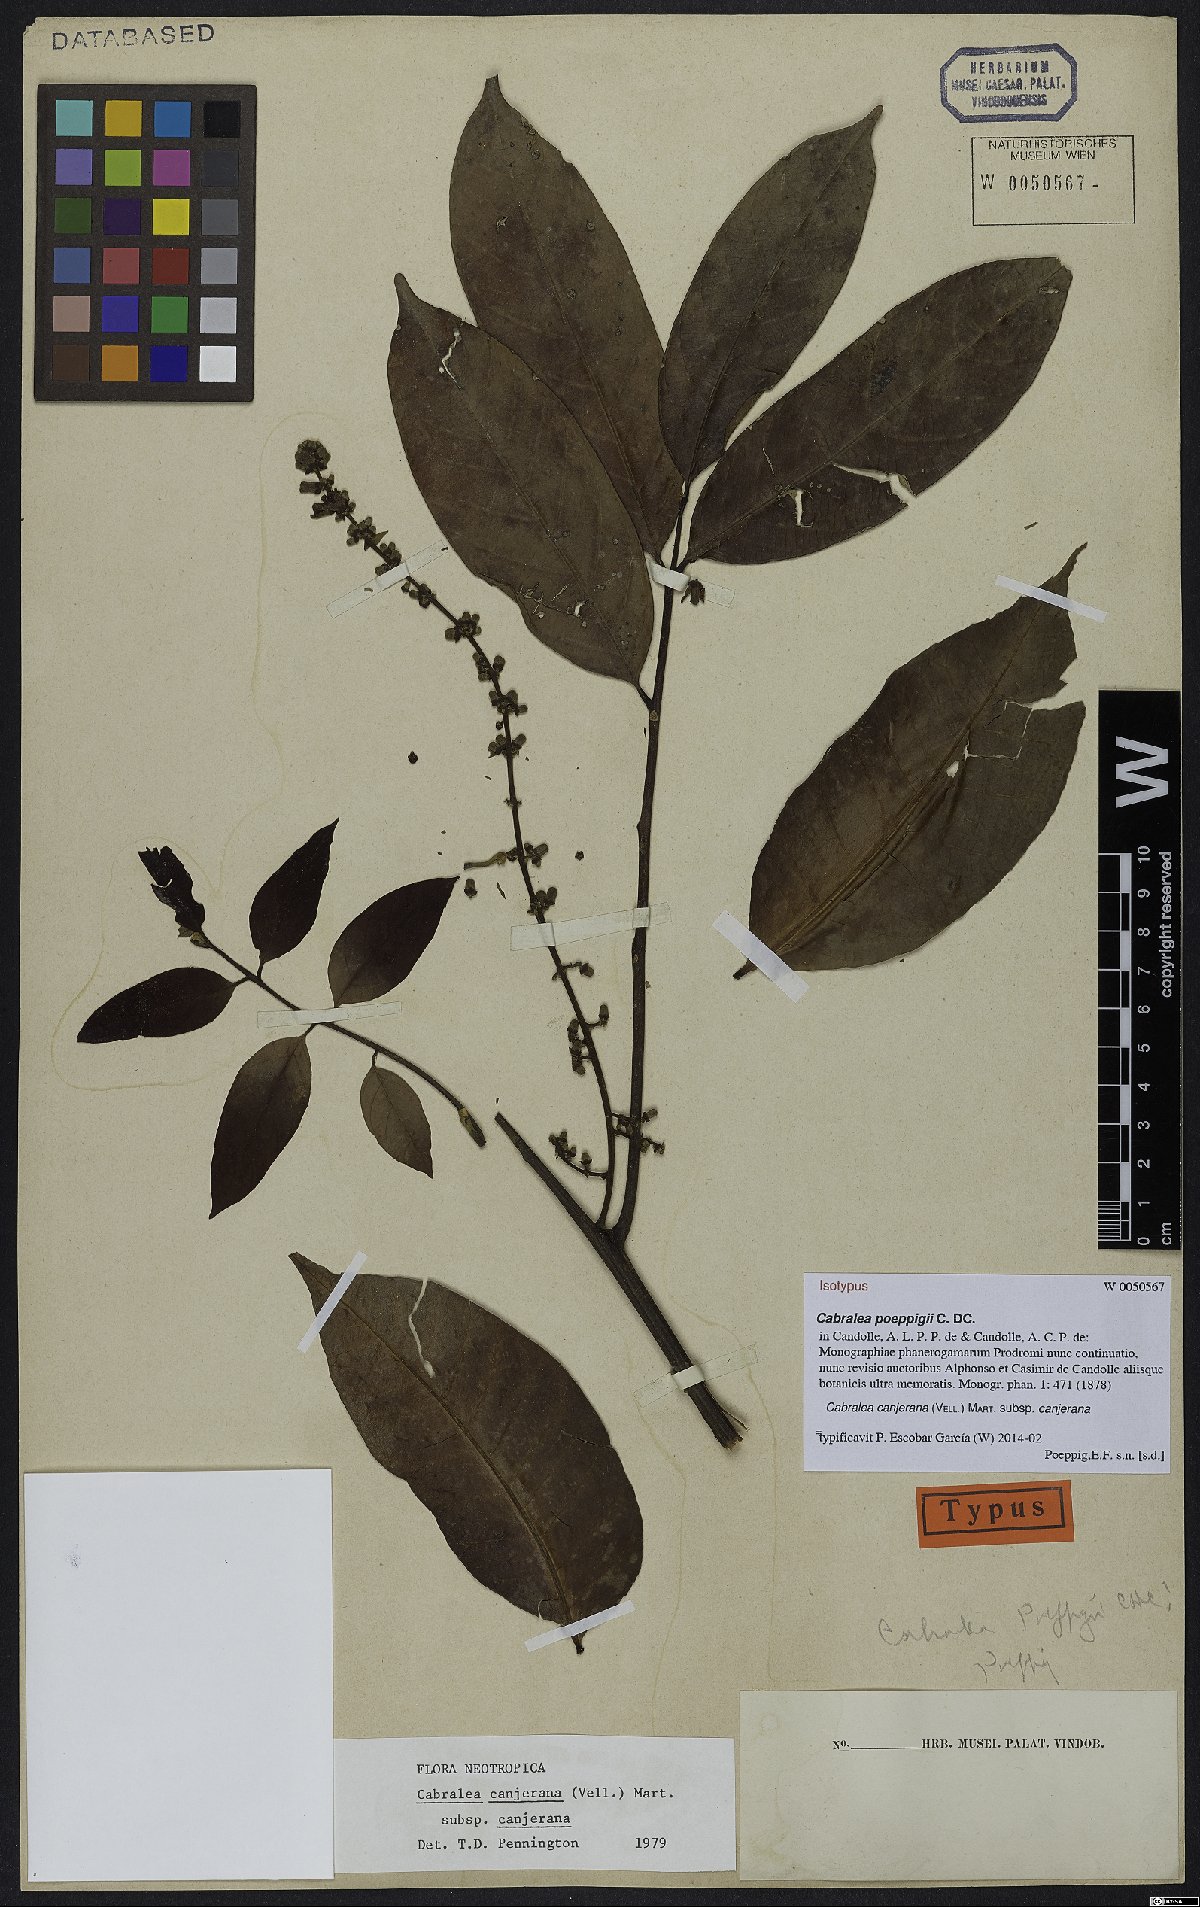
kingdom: Plantae
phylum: Tracheophyta
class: Magnoliopsida
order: Sapindales
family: Meliaceae
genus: Cabralea
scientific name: Cabralea canjerana
